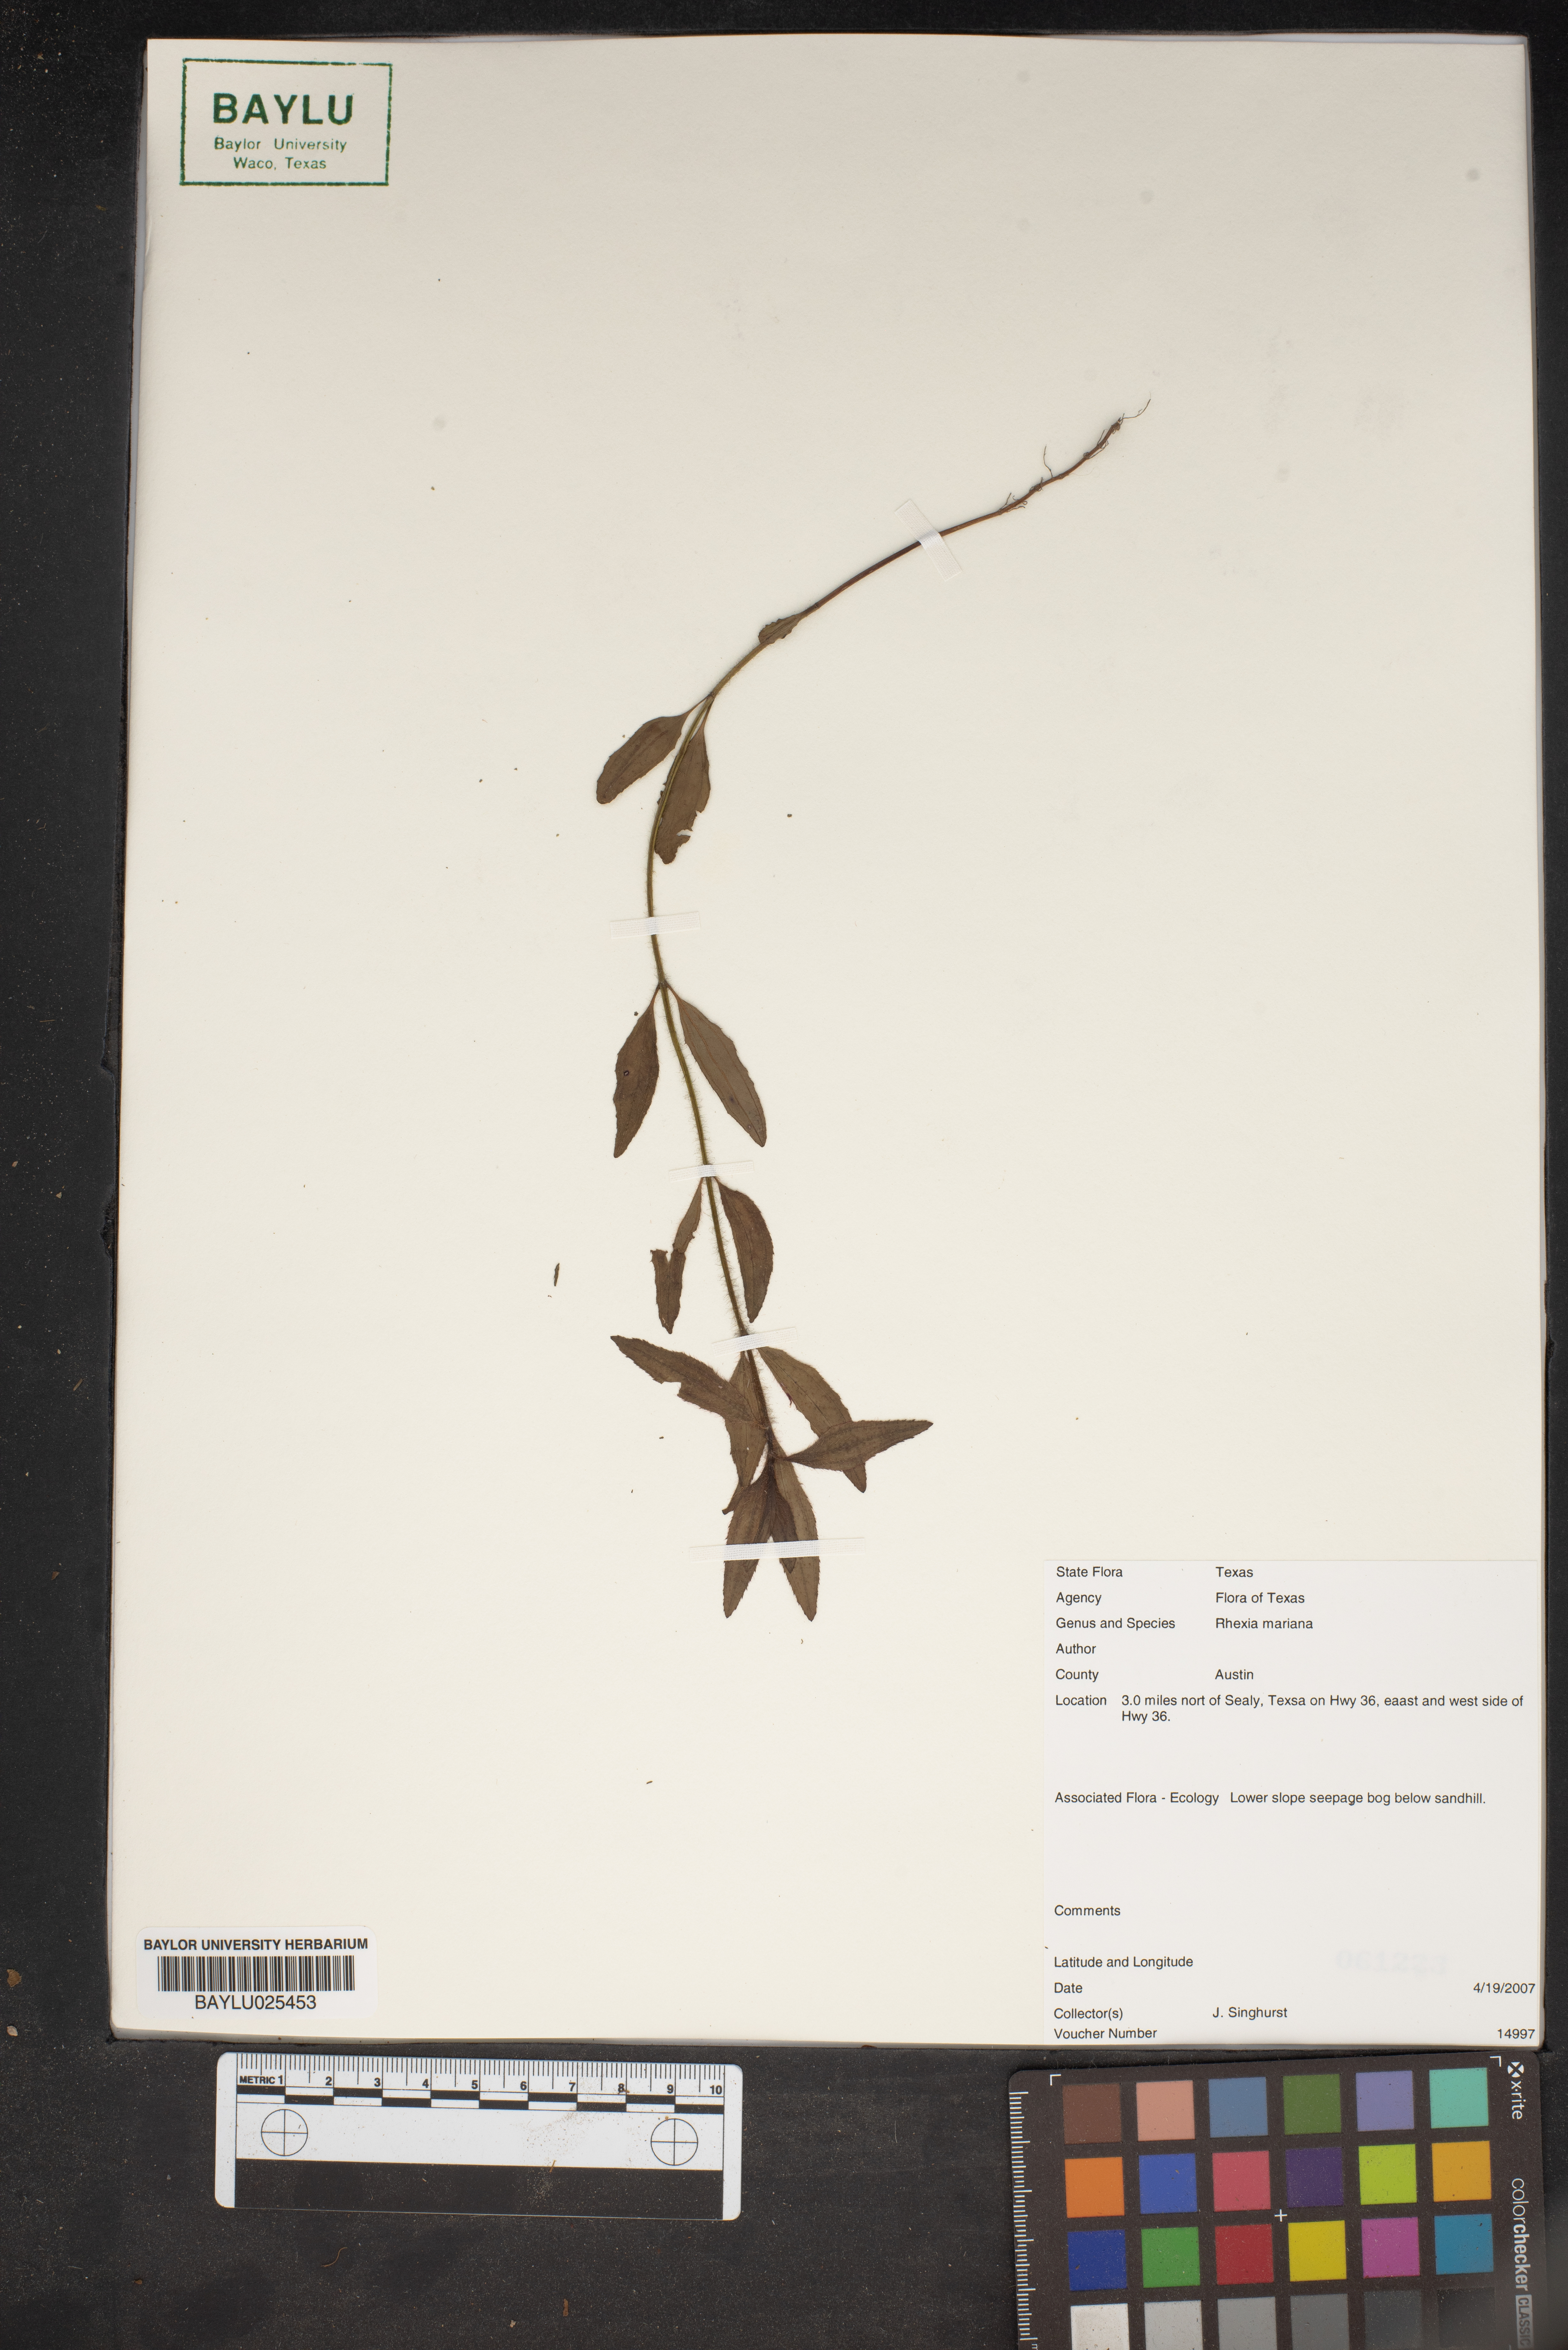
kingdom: Plantae
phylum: Tracheophyta
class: Magnoliopsida
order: Myrtales
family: Melastomataceae
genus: Rhexia
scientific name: Rhexia mariana
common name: Dull meadow-pitcher
